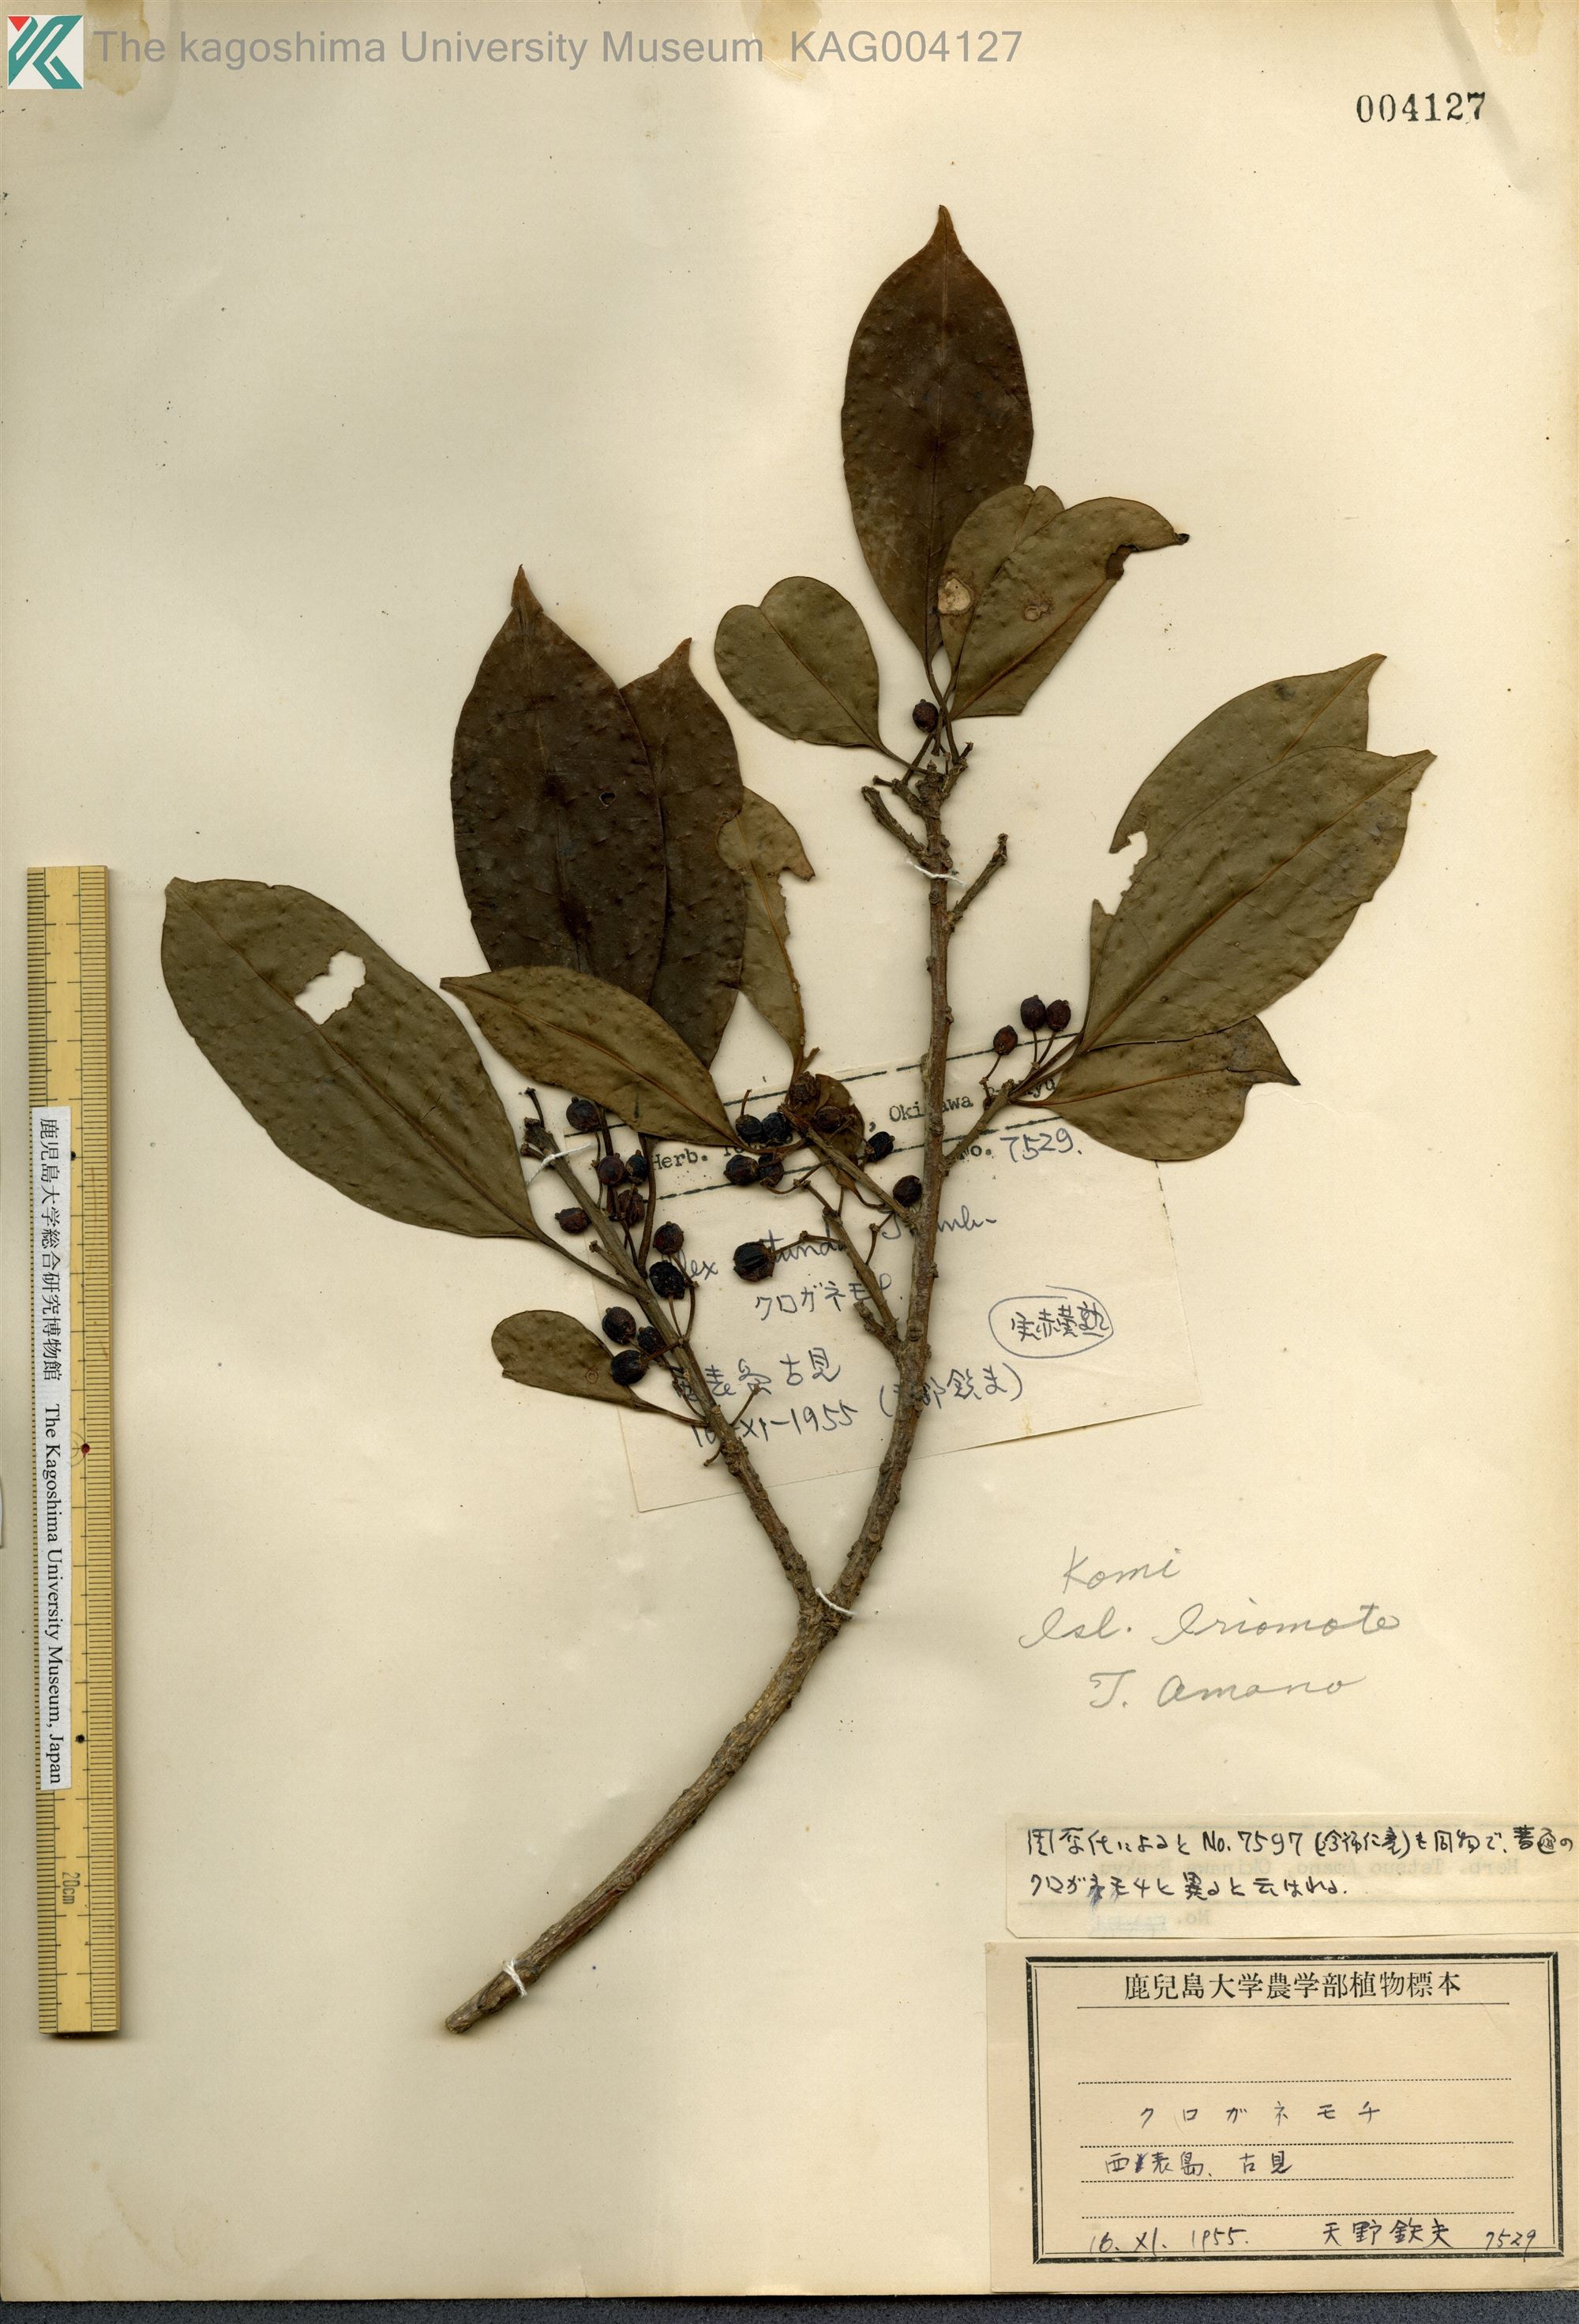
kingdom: Plantae
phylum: Tracheophyta
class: Magnoliopsida
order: Aquifoliales
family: Aquifoliaceae
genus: Ilex
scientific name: Ilex rotunda
